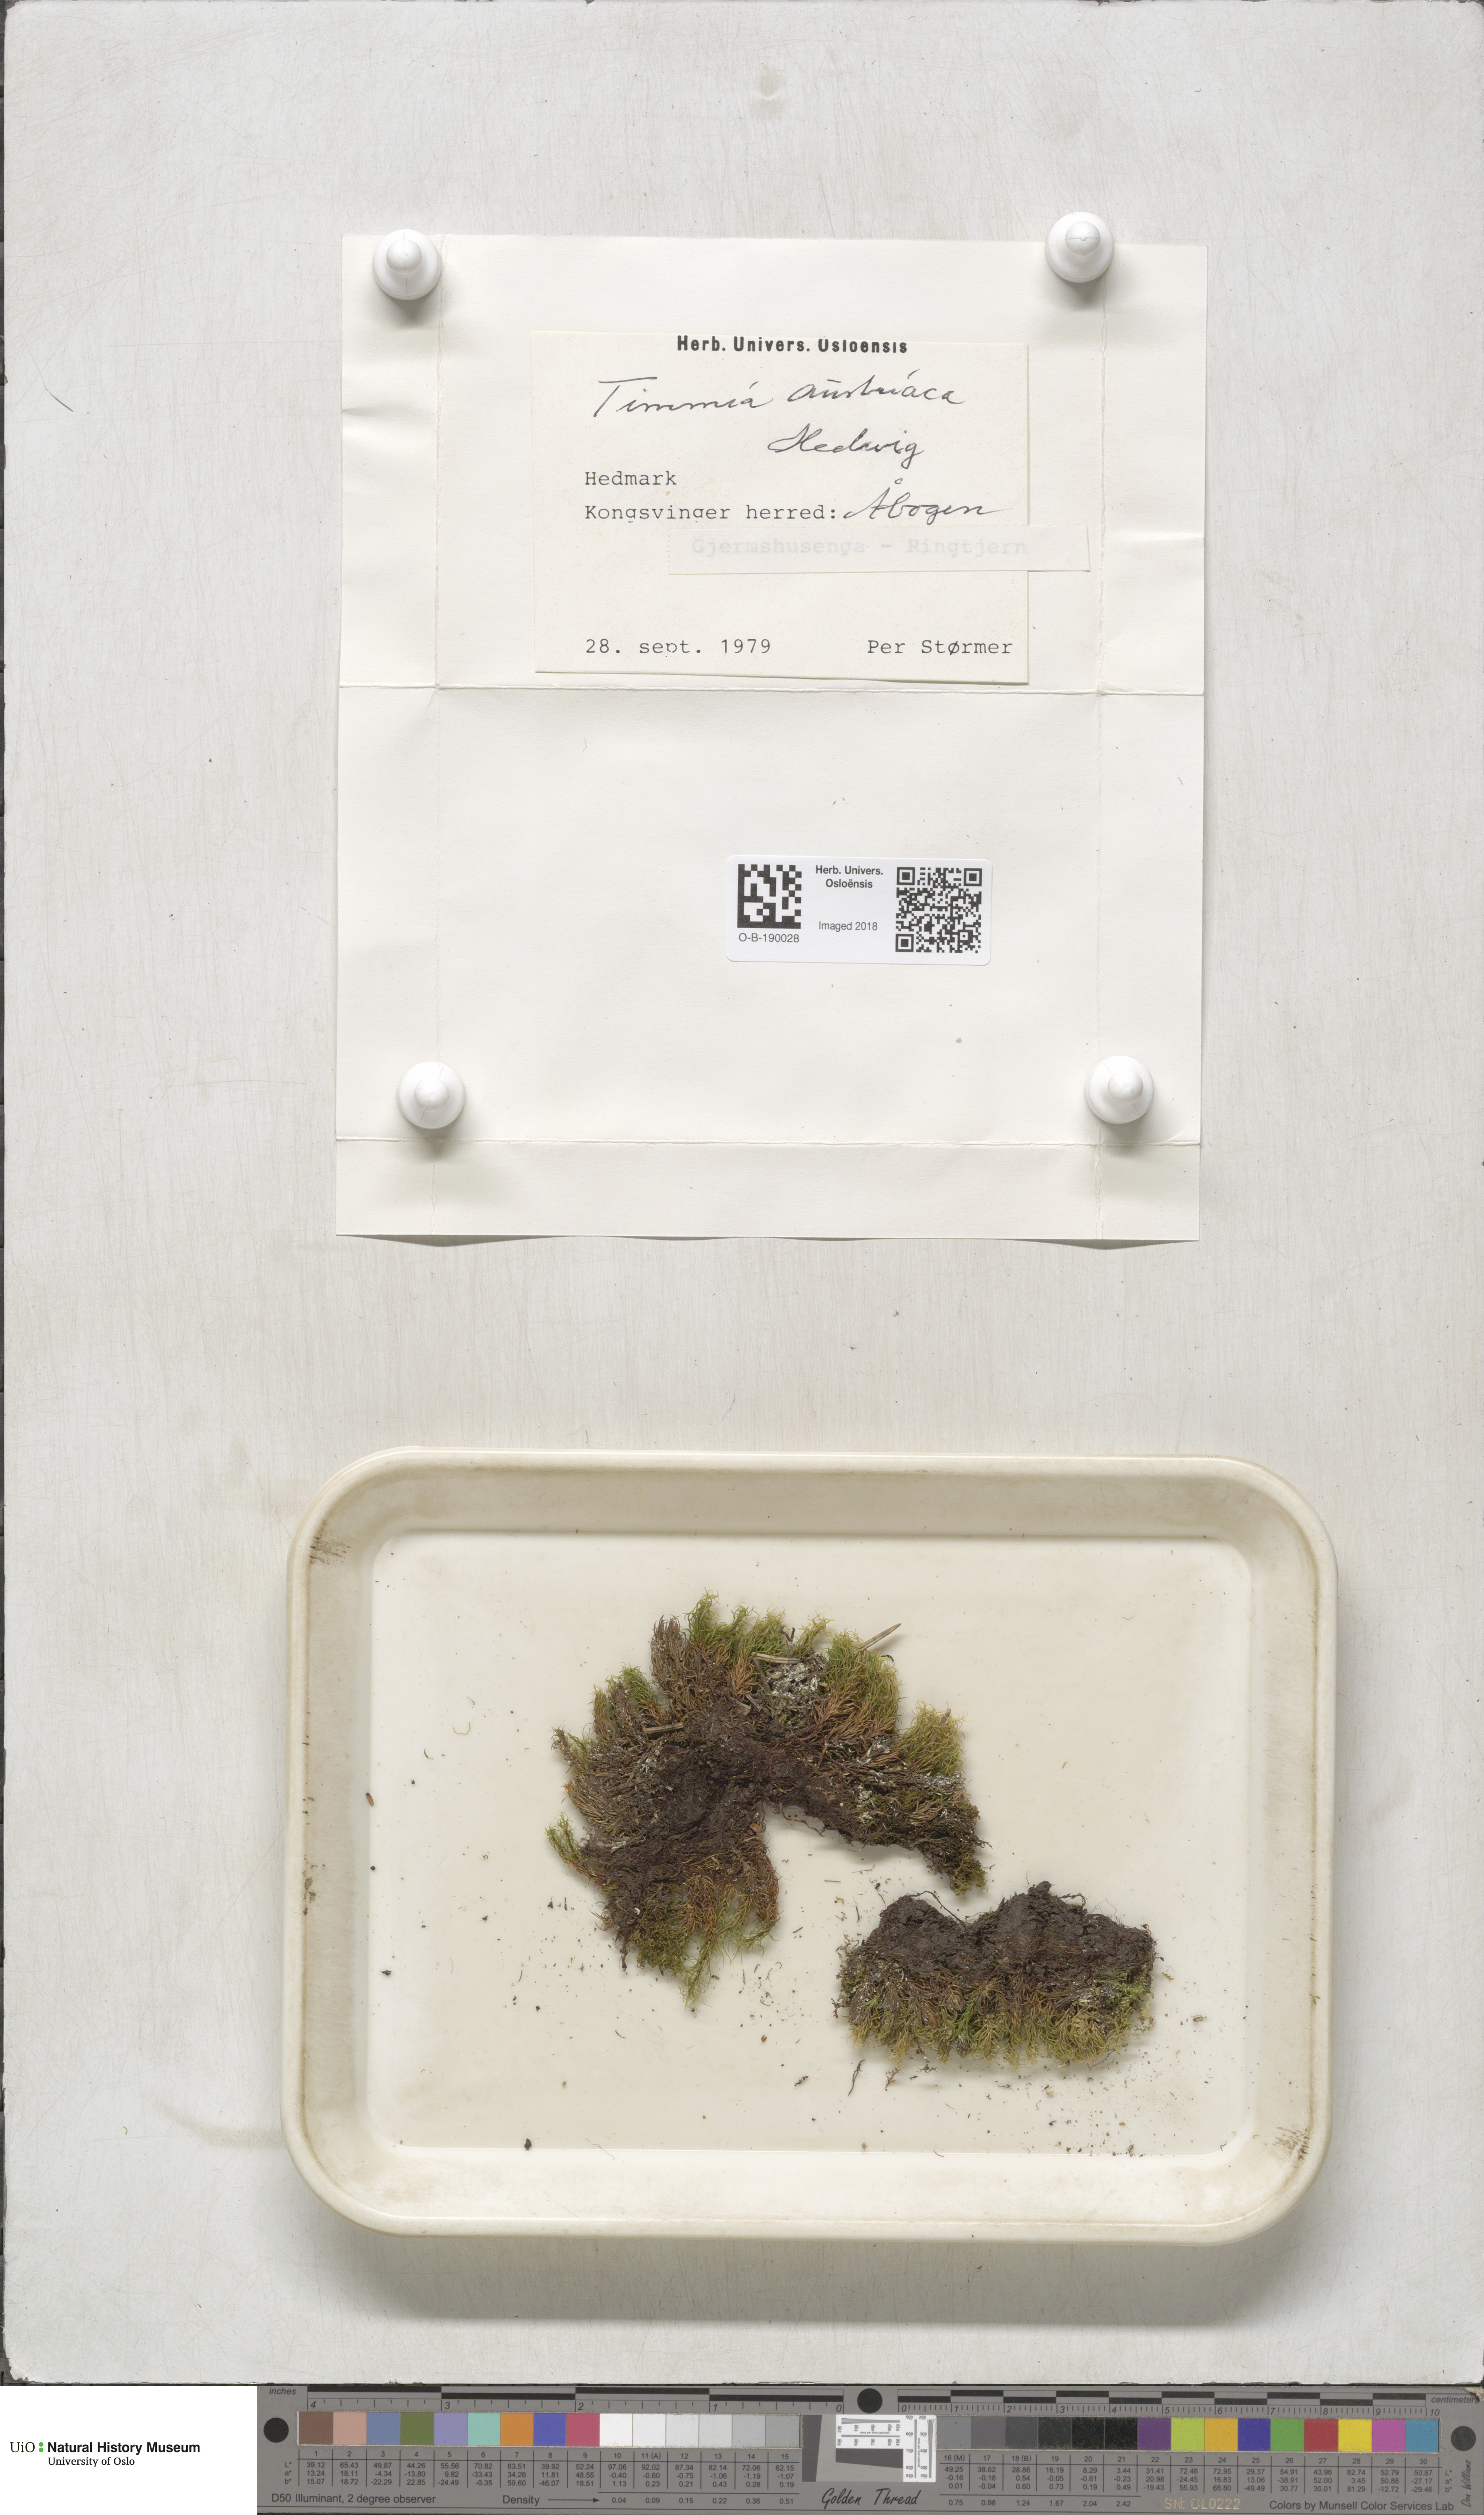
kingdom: Plantae
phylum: Bryophyta
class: Bryopsida
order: Timmiales
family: Timmiaceae
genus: Timmia
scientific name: Timmia austriaca
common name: Austrian timmia
